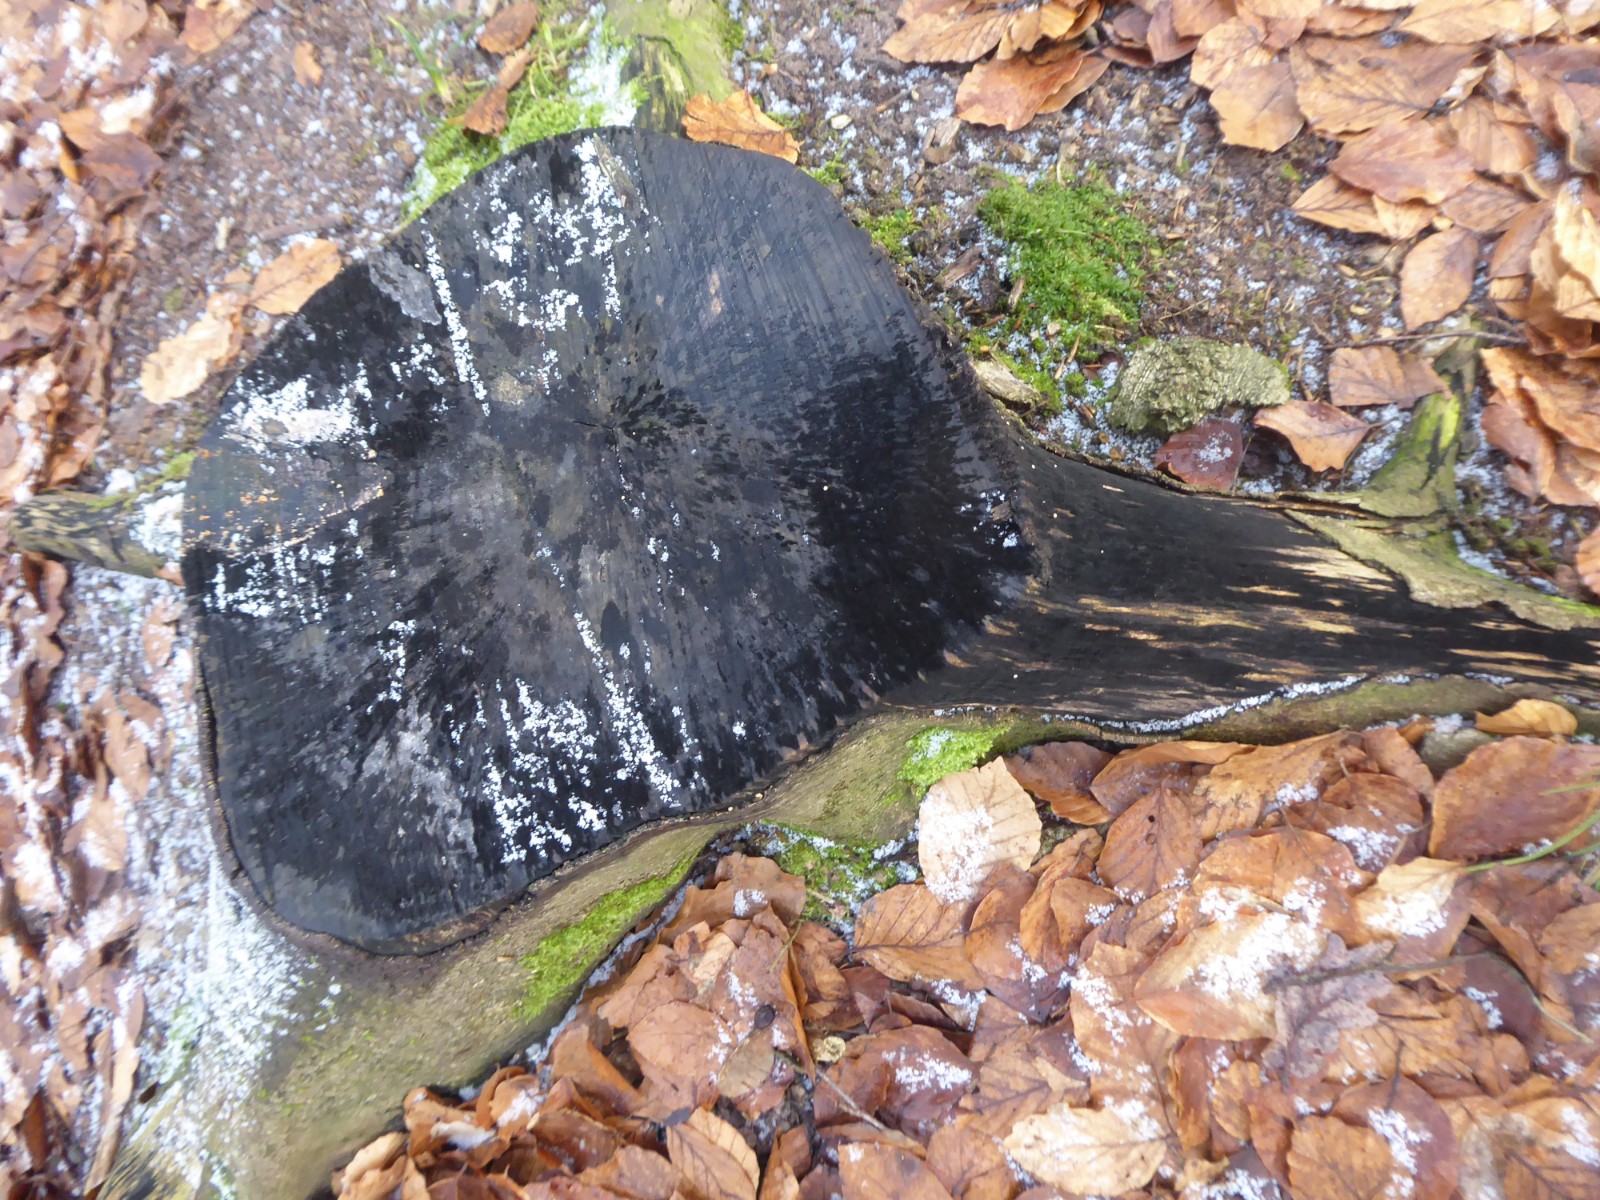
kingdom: Fungi
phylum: Ascomycota
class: Leotiomycetes
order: Helotiales
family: Helotiaceae
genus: Bispora
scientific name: Bispora pallescens
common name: måtte-snitskive
